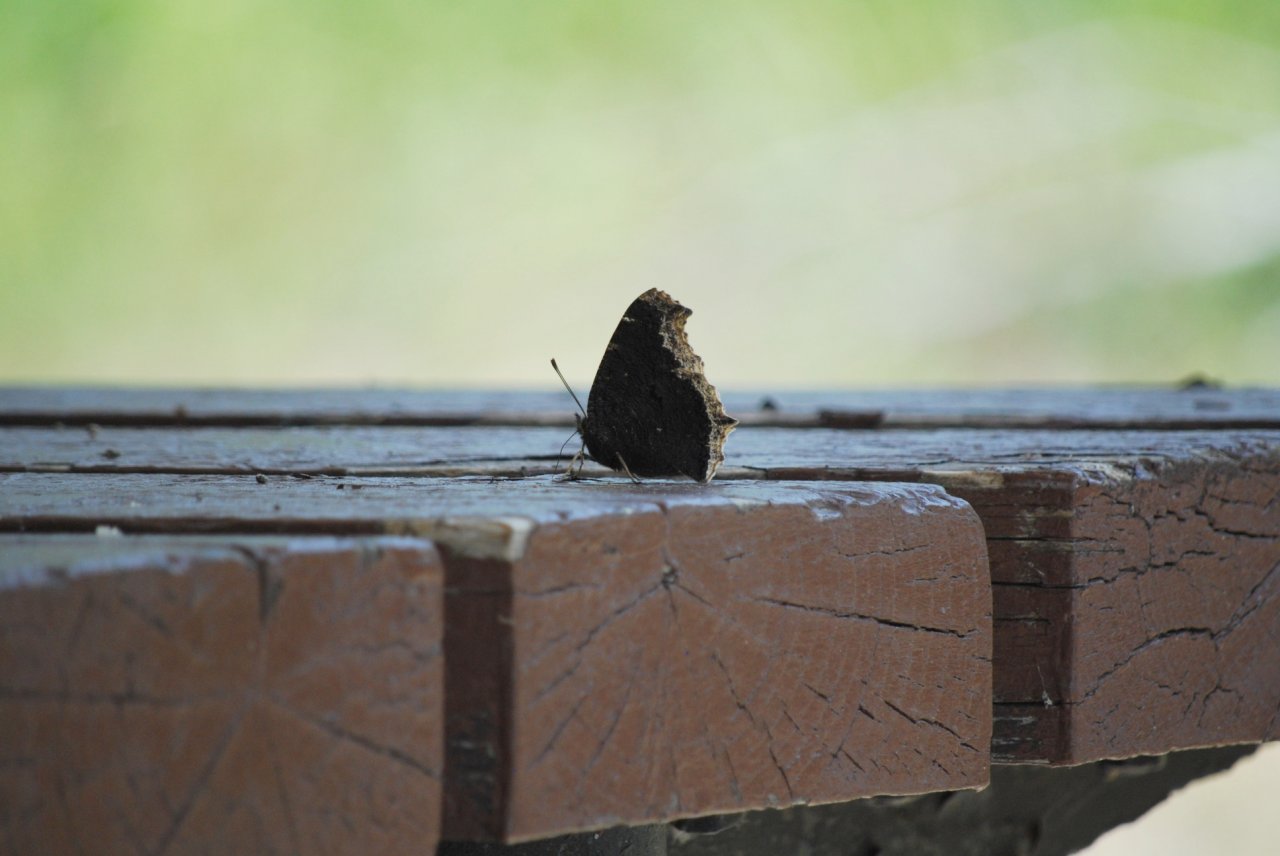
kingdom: Animalia
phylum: Arthropoda
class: Insecta
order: Lepidoptera
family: Nymphalidae
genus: Nymphalis
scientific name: Nymphalis antiopa
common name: Mourning Cloak
